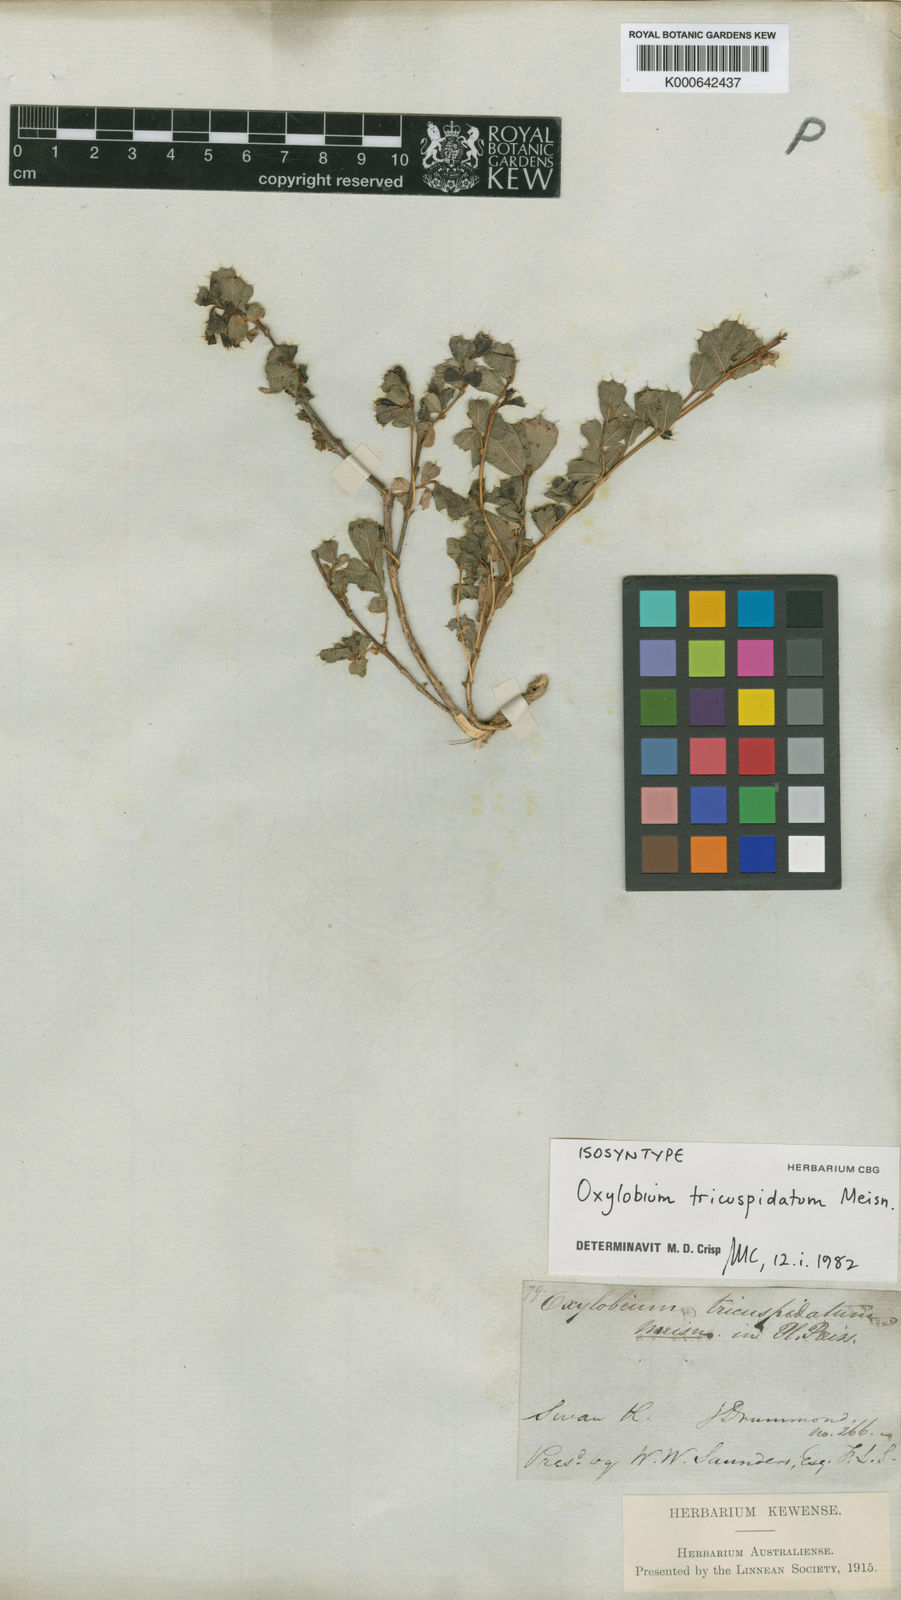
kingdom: Plantae
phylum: Tracheophyta
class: Magnoliopsida
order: Fabales
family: Fabaceae
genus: Gastrolobium
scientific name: Gastrolobium pusillum
